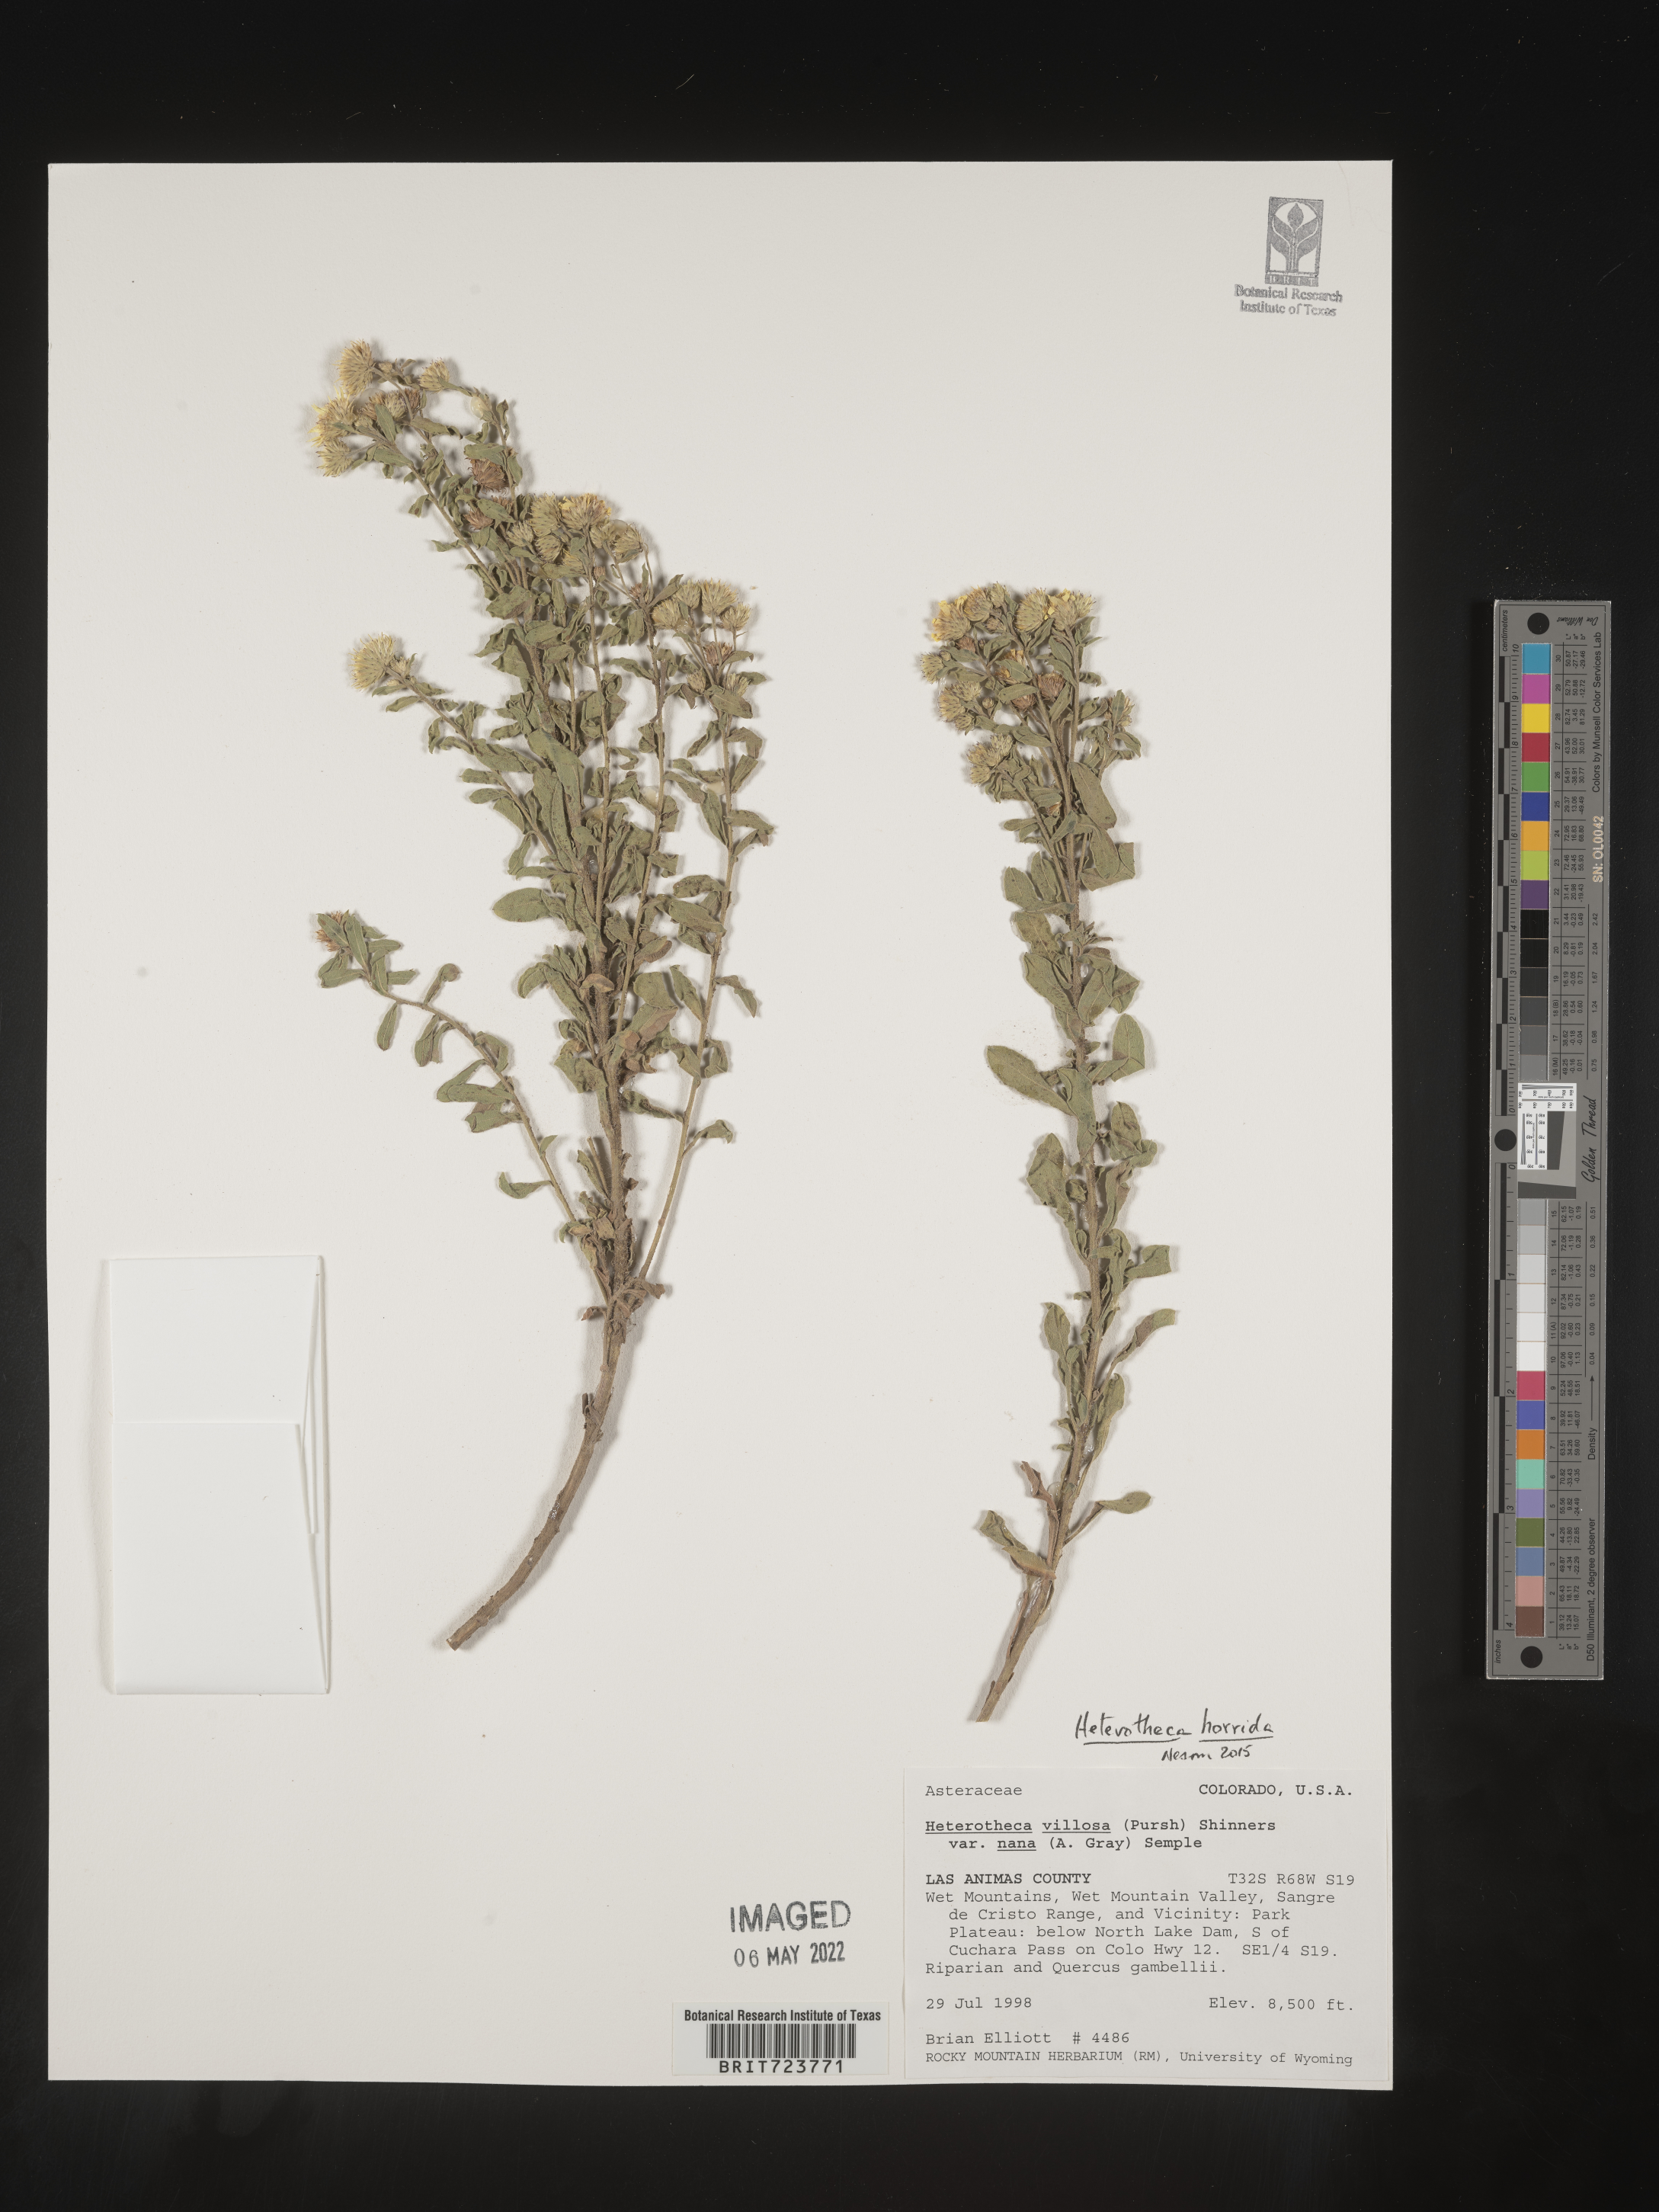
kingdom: Plantae
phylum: Tracheophyta
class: Magnoliopsida
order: Asterales
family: Asteraceae
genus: Heterotheca
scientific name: Heterotheca hirsutissima
